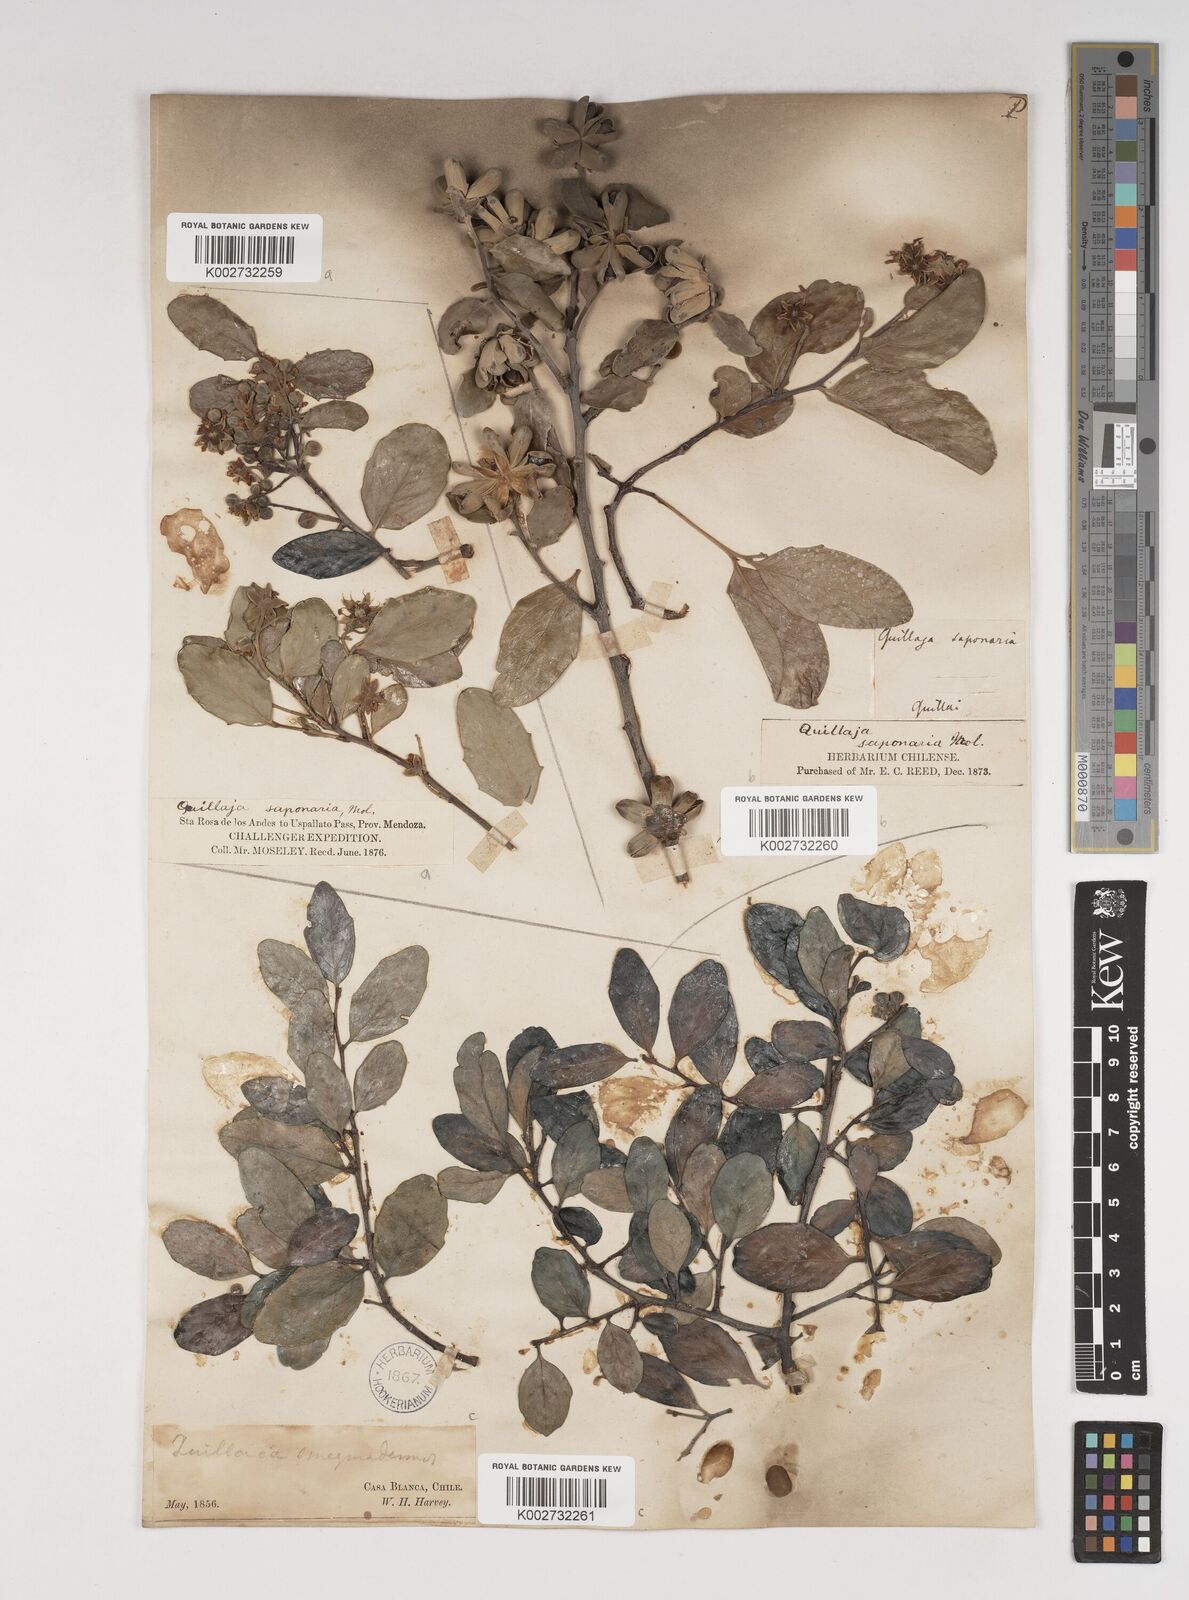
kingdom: Plantae
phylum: Tracheophyta
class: Magnoliopsida
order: Fabales
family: Quillajaceae
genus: Quillaja
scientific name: Quillaja saponaria
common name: Murillo's-bark
